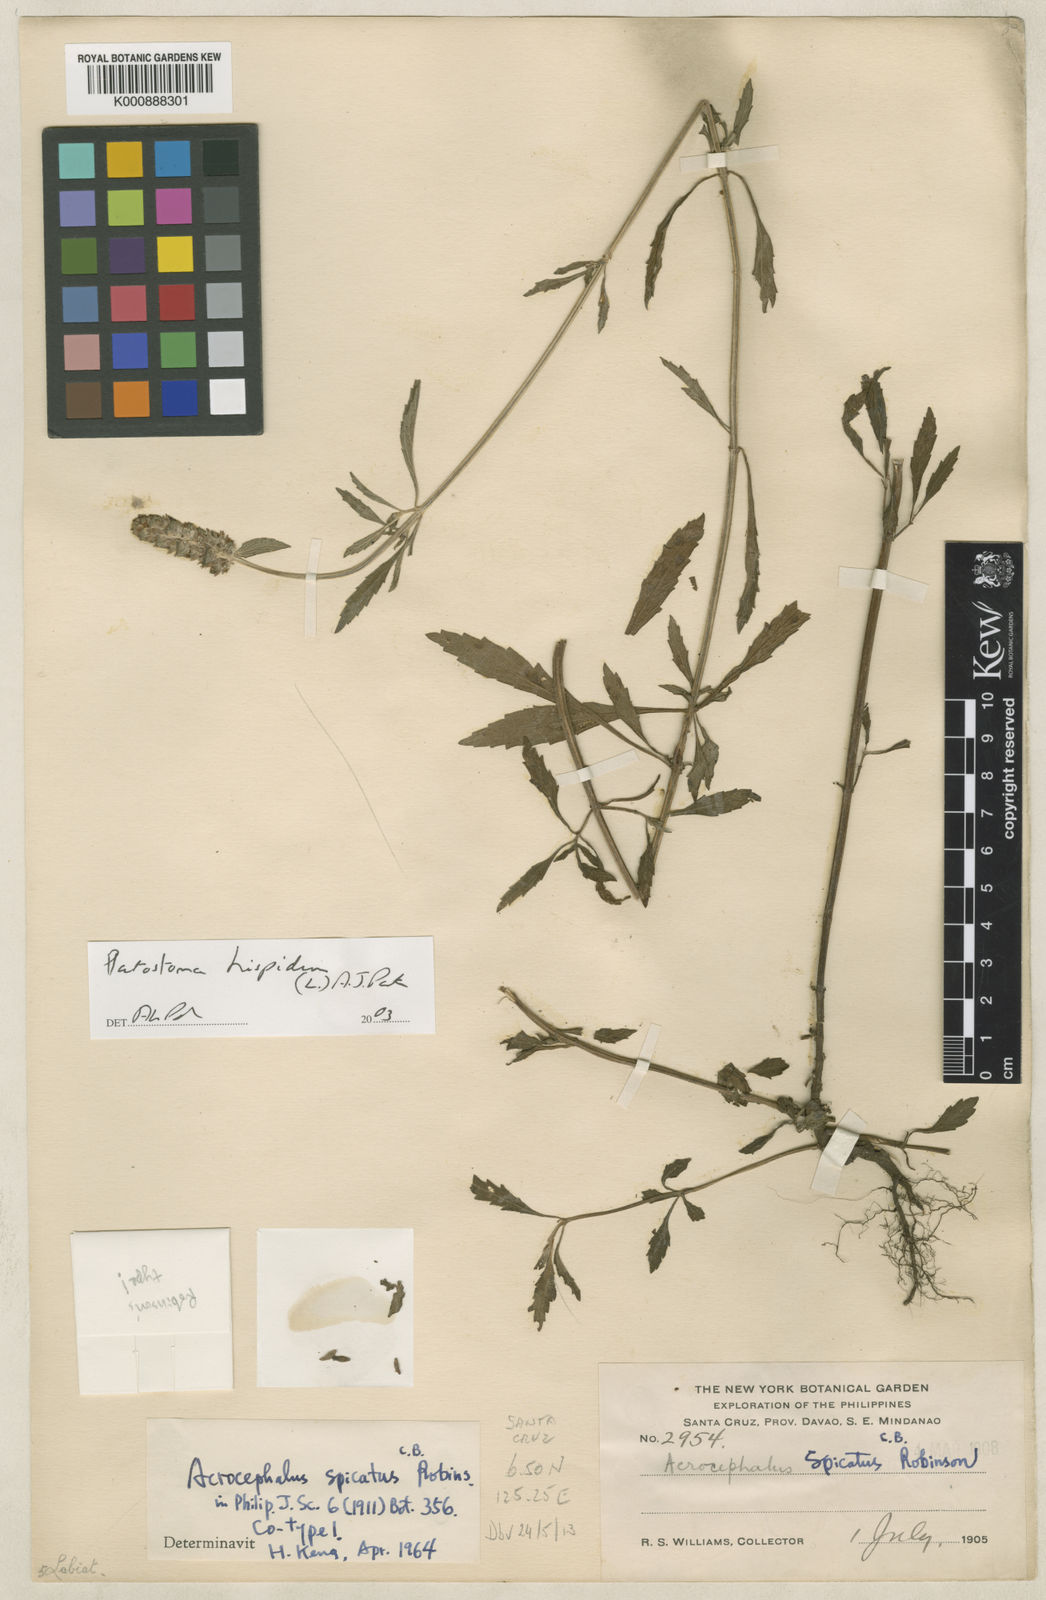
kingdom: Plantae
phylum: Tracheophyta
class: Magnoliopsida
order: Lamiales
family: Lamiaceae
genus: Platostoma
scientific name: Platostoma hispidum
